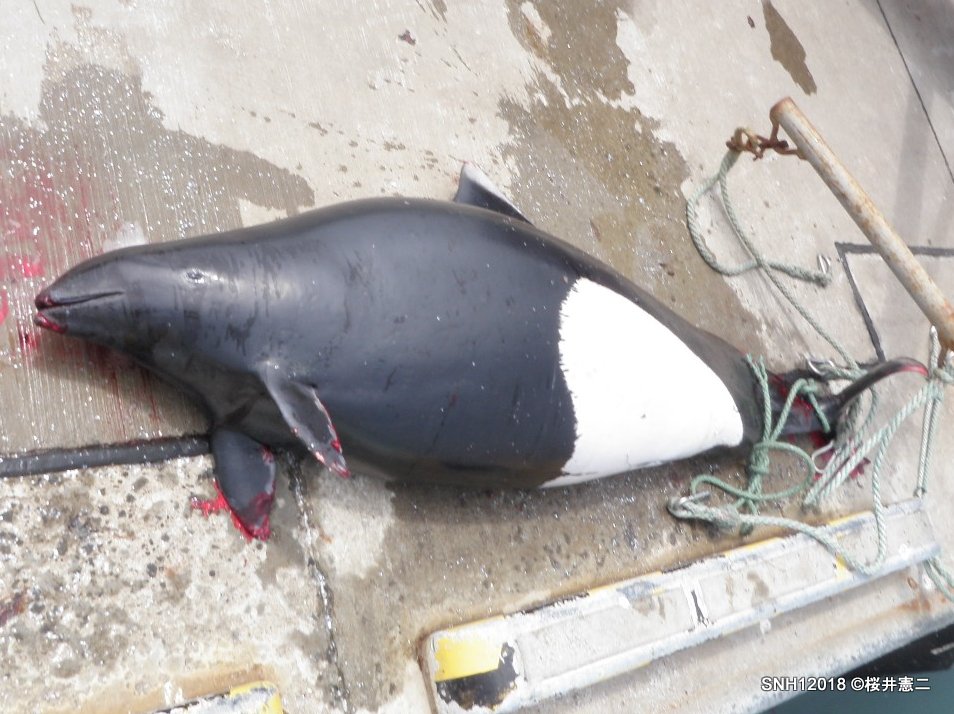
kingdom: Animalia
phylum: Chordata
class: Mammalia
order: Cetacea
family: Phocoenidae
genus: Phocoenoides
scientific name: Phocoenoides dalli
